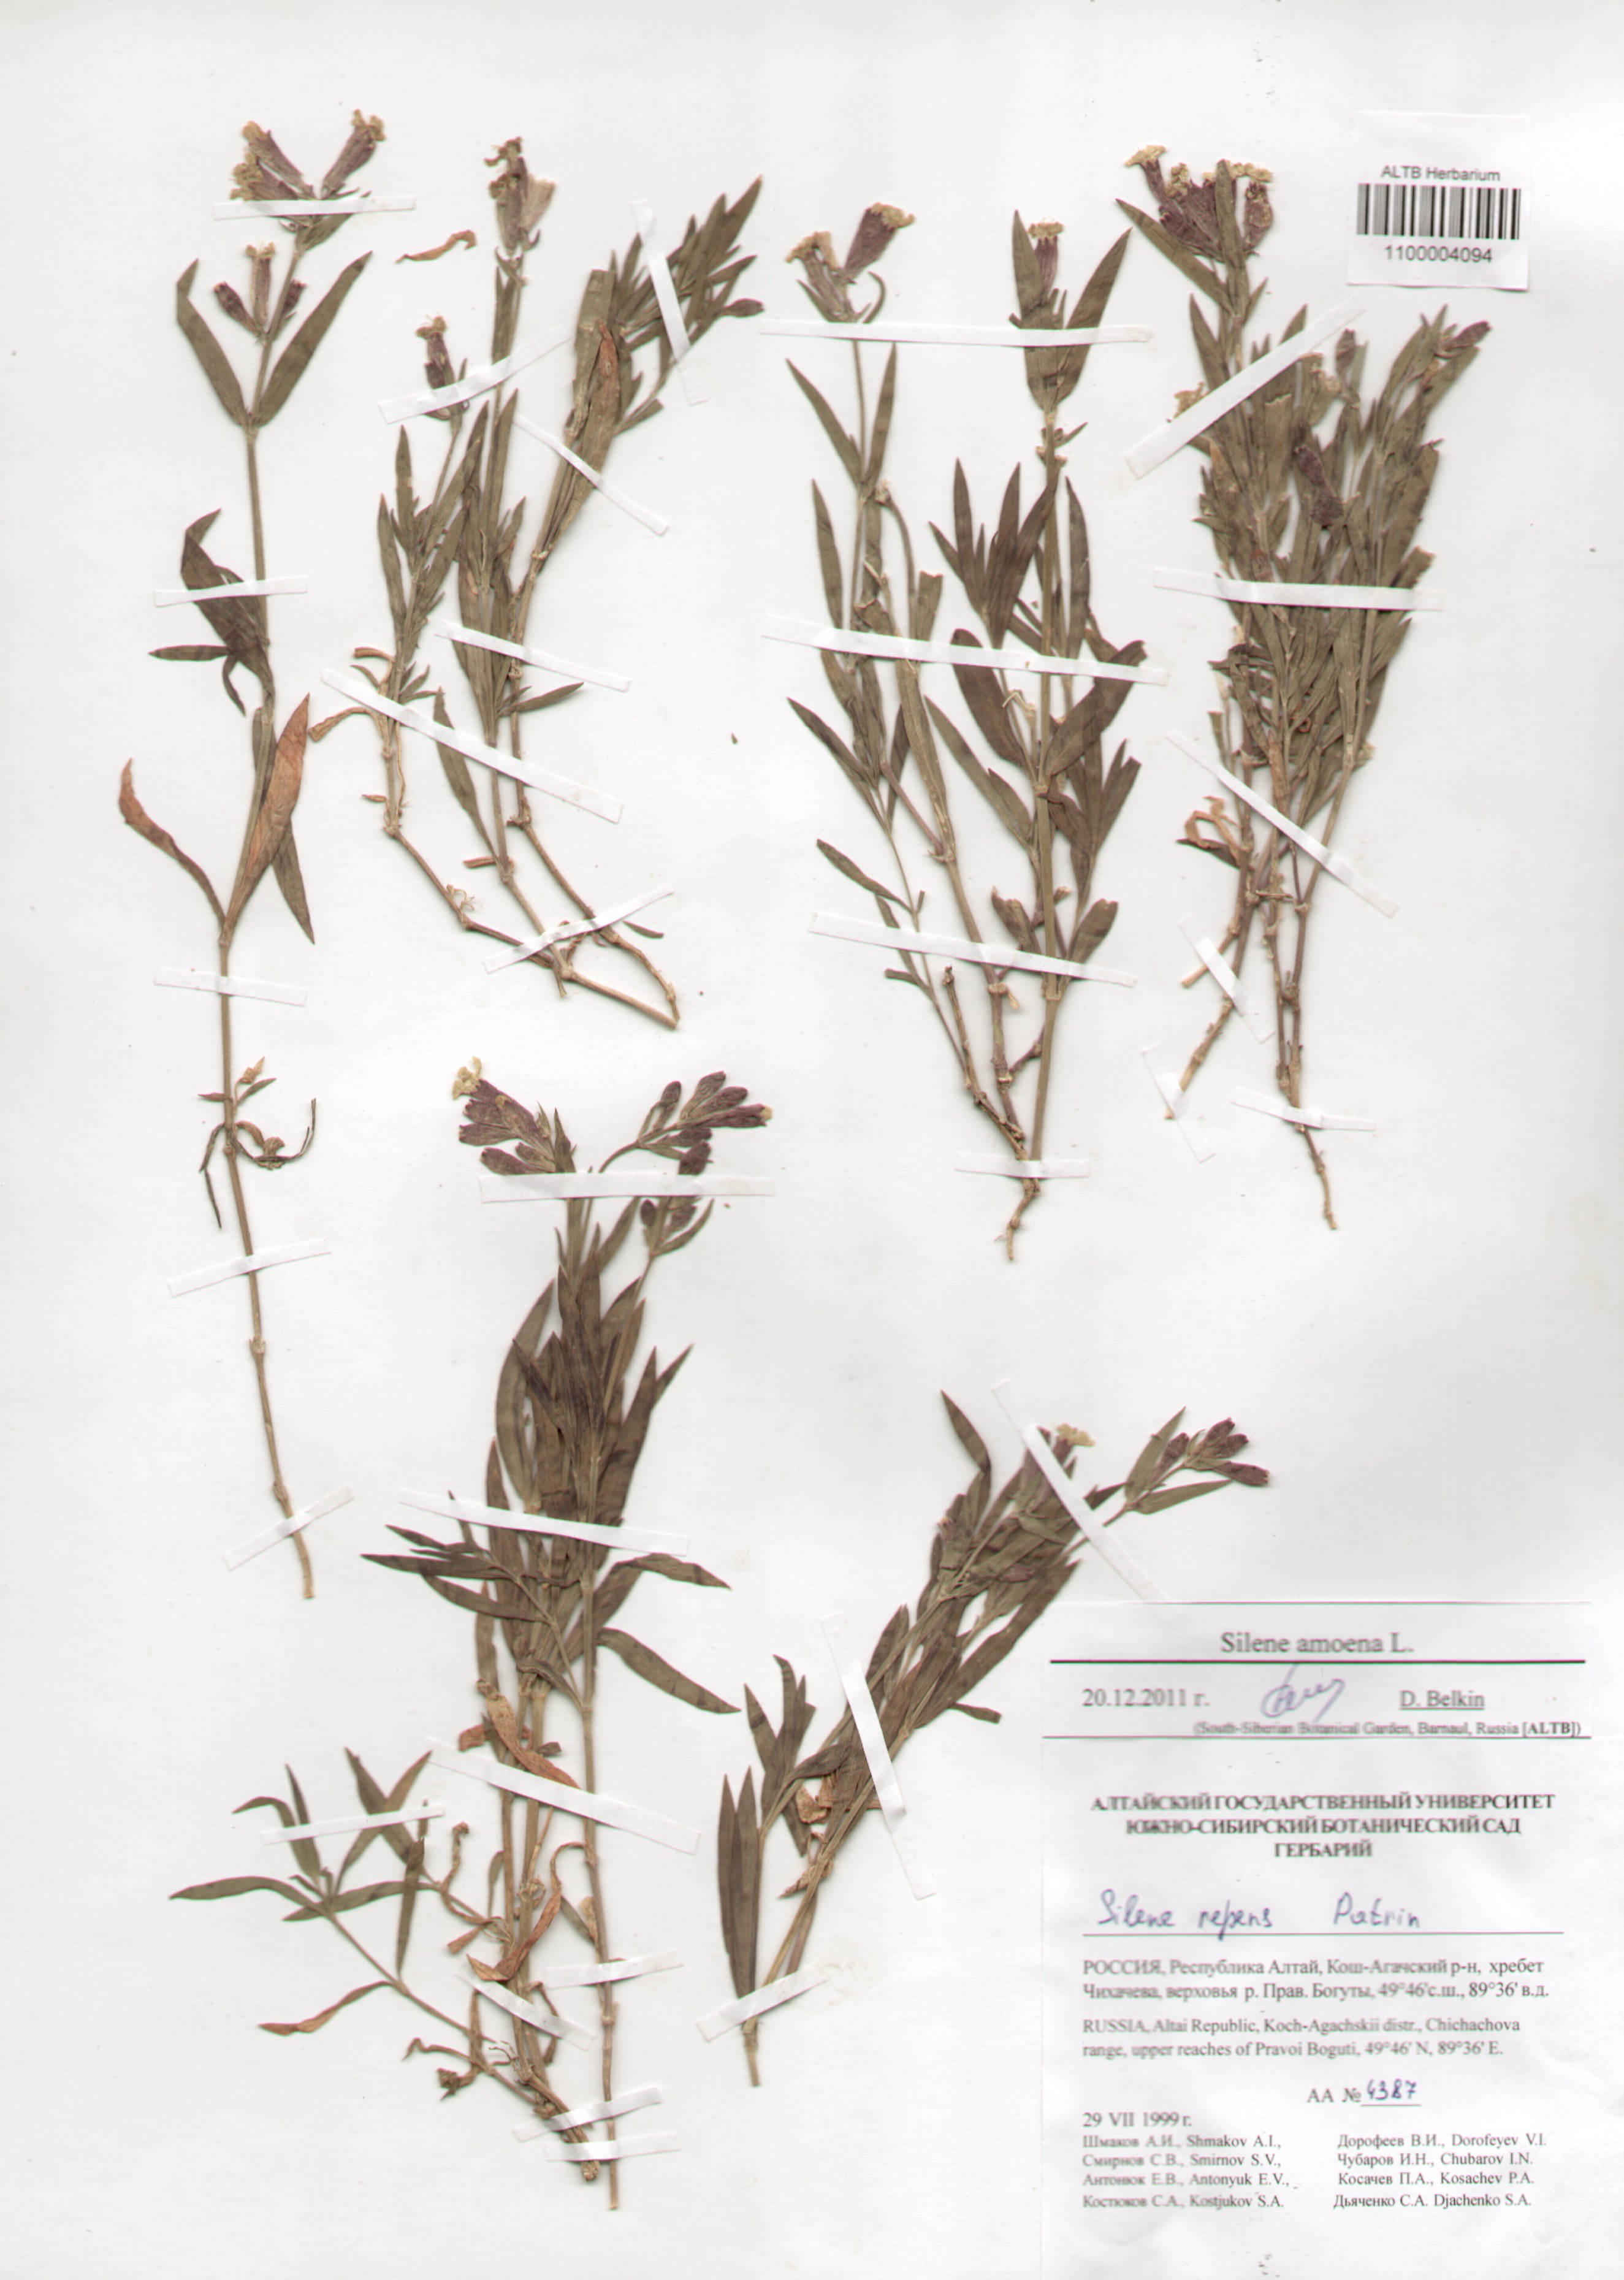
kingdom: Plantae
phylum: Tracheophyta
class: Magnoliopsida
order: Caryophyllales
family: Caryophyllaceae
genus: Silene
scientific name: Silene amoena
